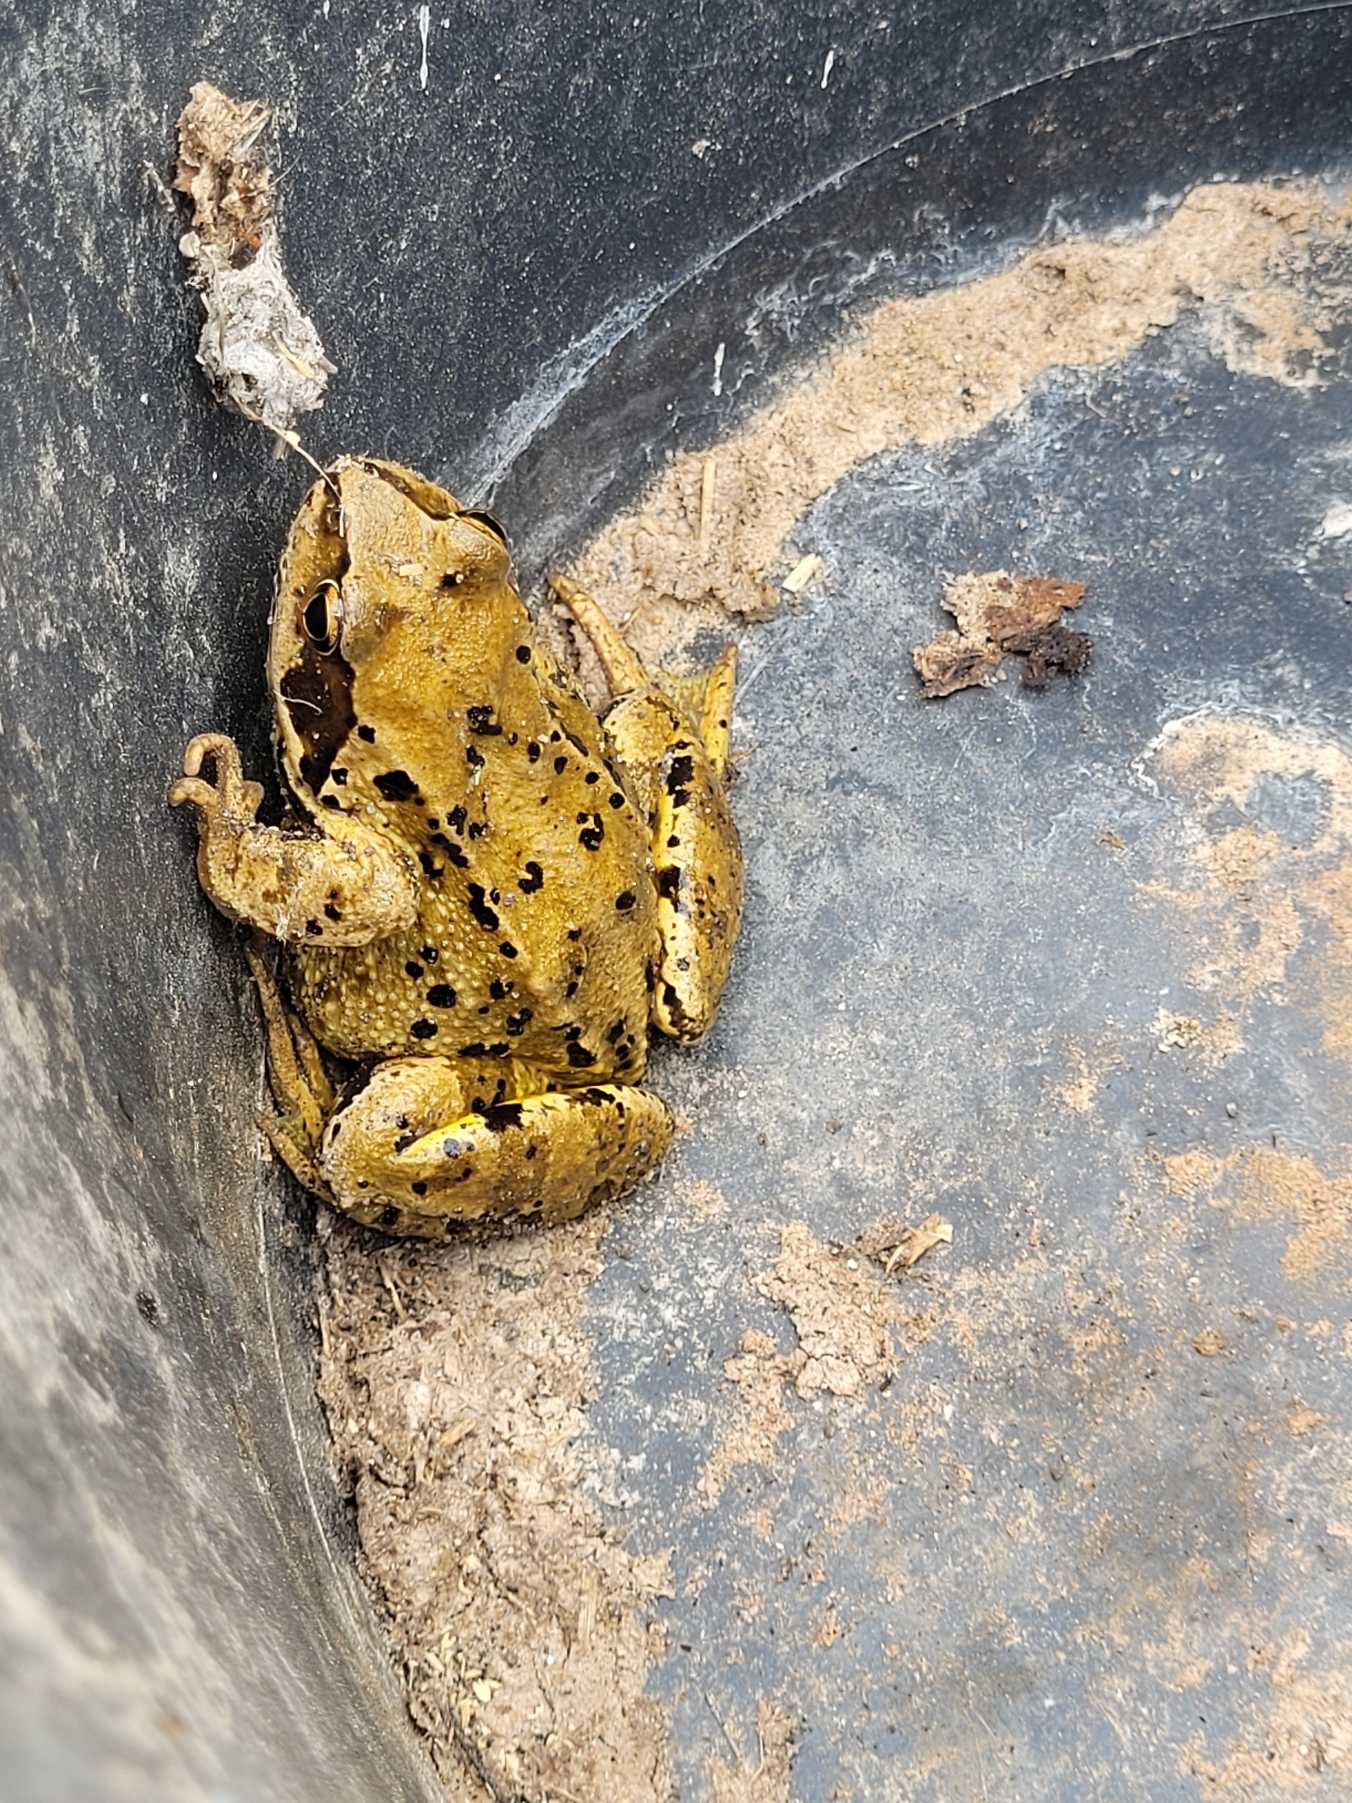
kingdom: Animalia
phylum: Chordata
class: Amphibia
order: Anura
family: Ranidae
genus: Rana
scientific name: Rana temporaria
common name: Butsnudet frø
